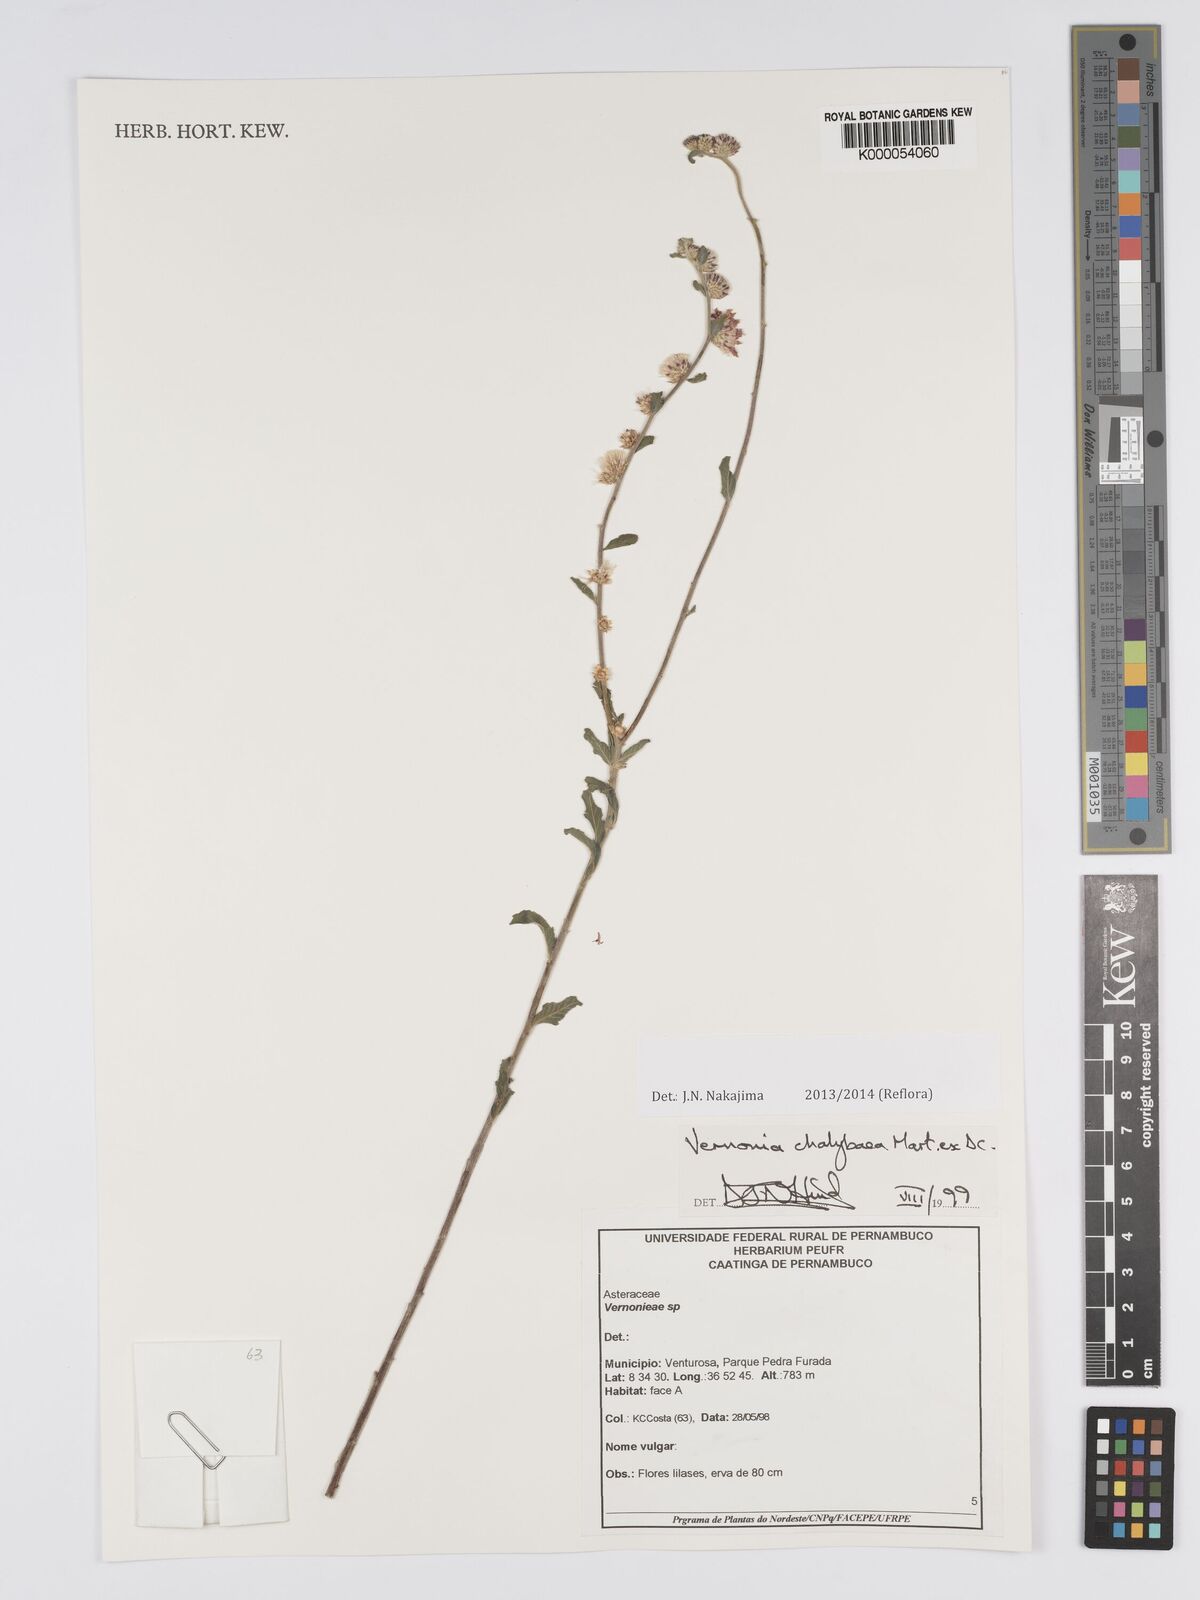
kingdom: Plantae
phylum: Tracheophyta
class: Magnoliopsida
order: Asterales
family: Asteraceae
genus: Lepidaploa
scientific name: Lepidaploa chalybaea
